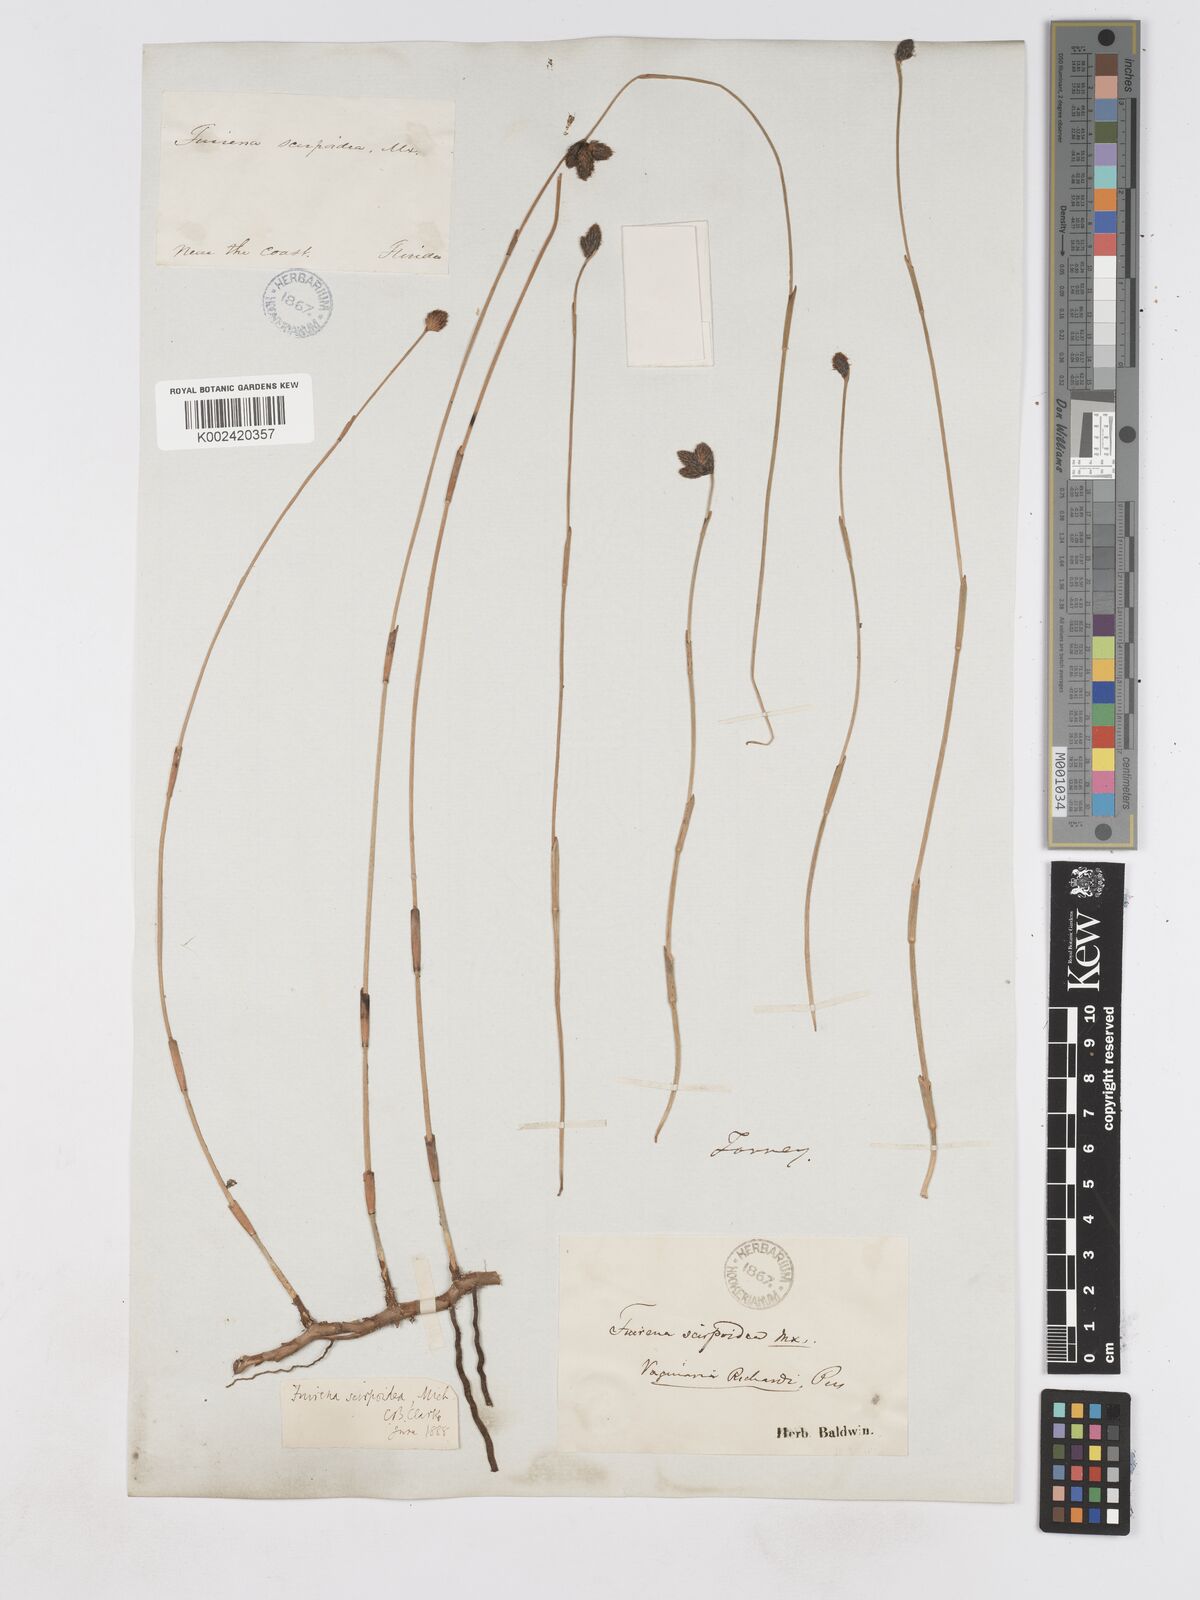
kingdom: Plantae
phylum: Tracheophyta
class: Liliopsida
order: Poales
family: Cyperaceae
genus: Fuirena
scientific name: Fuirena scirpoidea
